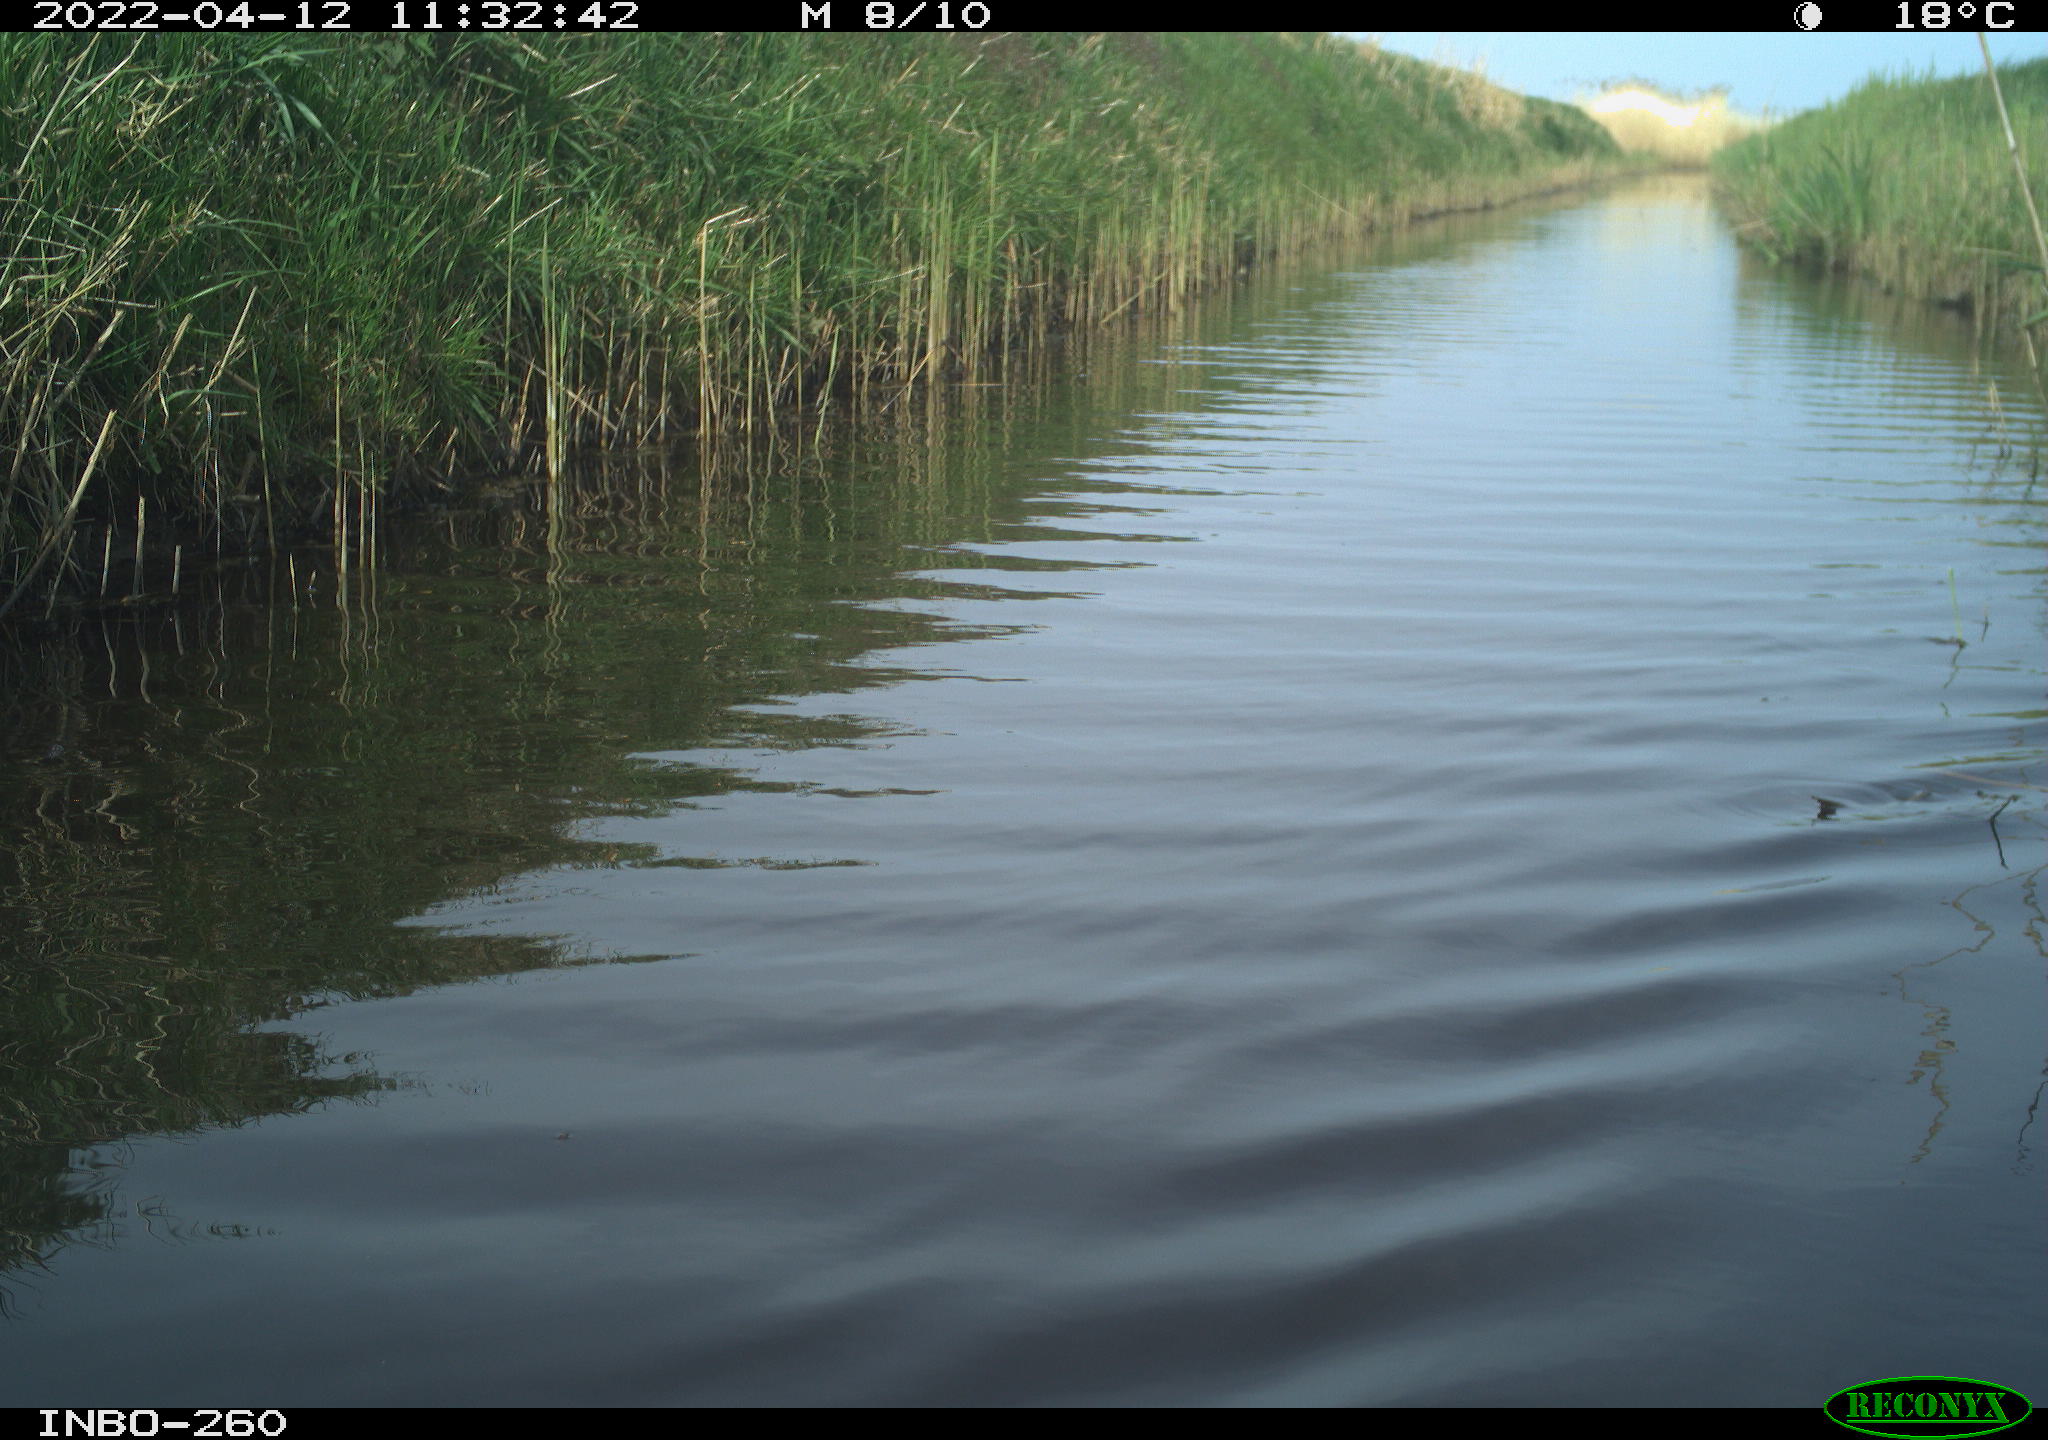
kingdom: Animalia
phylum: Chordata
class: Aves
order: Gruiformes
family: Rallidae
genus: Fulica
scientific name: Fulica atra
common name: Eurasian coot
